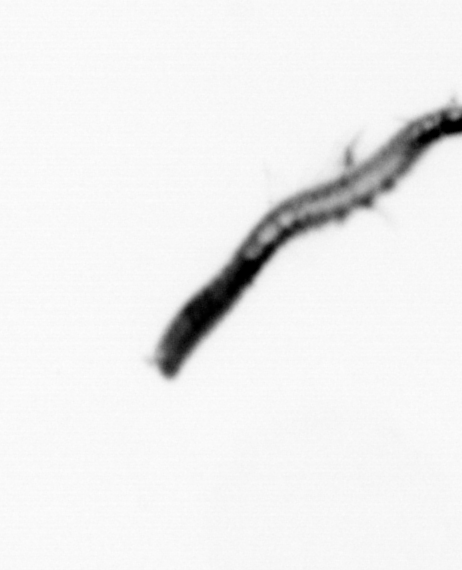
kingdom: Animalia
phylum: Annelida
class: Polychaeta
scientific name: Polychaeta
